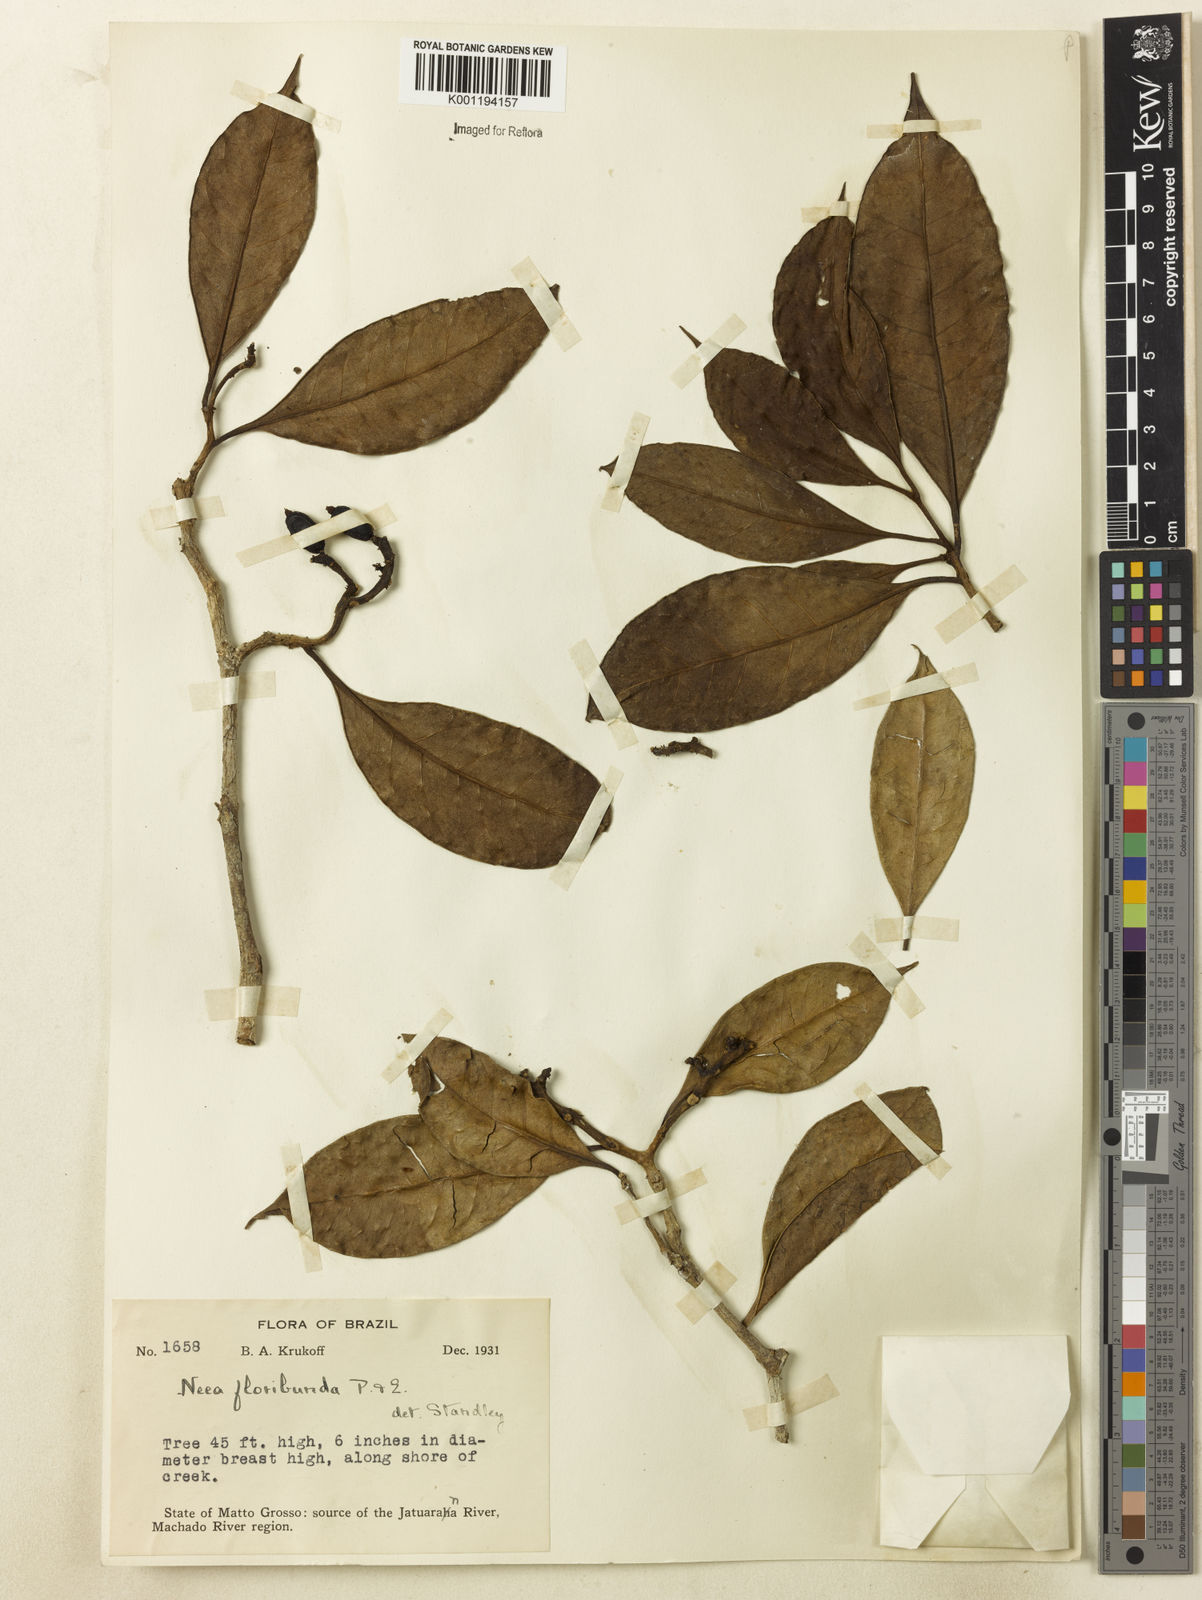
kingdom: Plantae
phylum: Tracheophyta
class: Magnoliopsida
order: Caryophyllales
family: Nyctaginaceae
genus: Neea
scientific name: Neea floribunda
